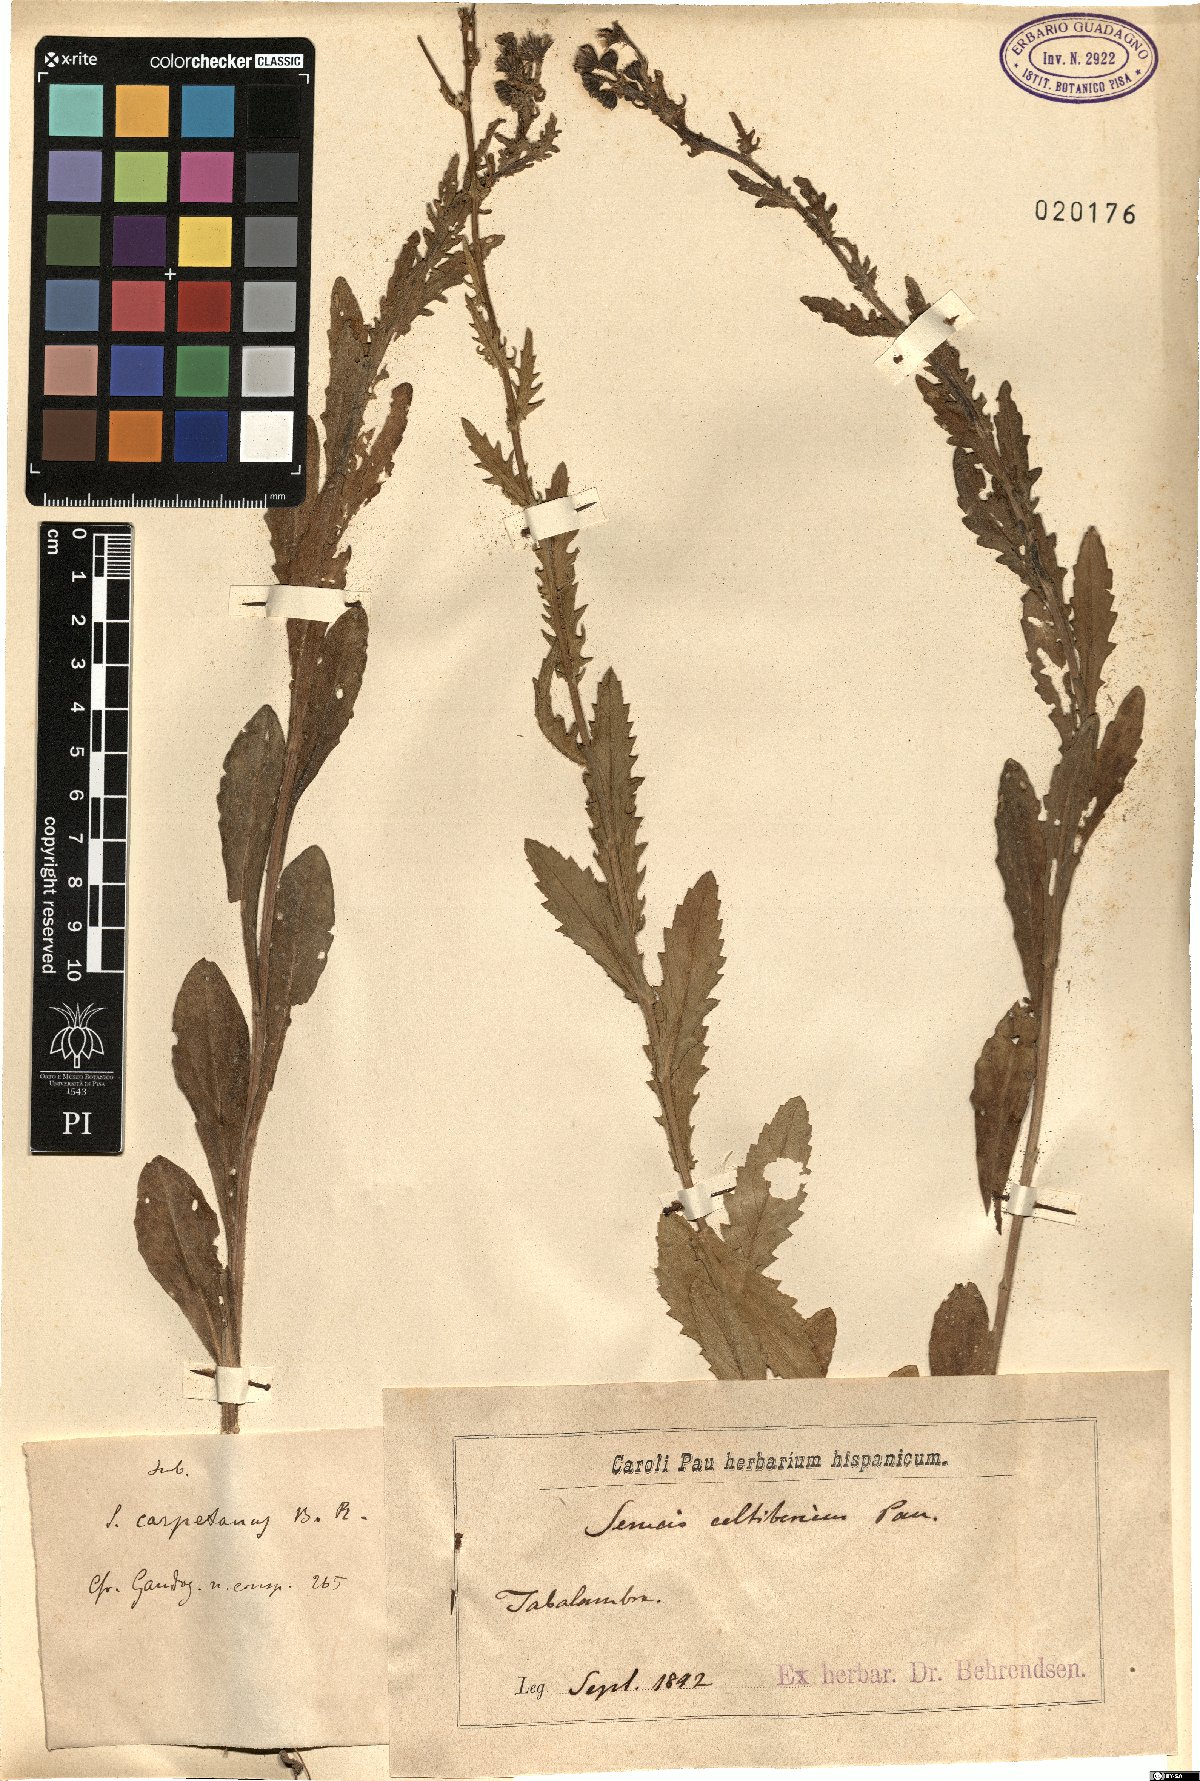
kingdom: Plantae
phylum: Tracheophyta
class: Magnoliopsida
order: Asterales
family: Asteraceae
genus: Senecio
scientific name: Senecio carpetanus
